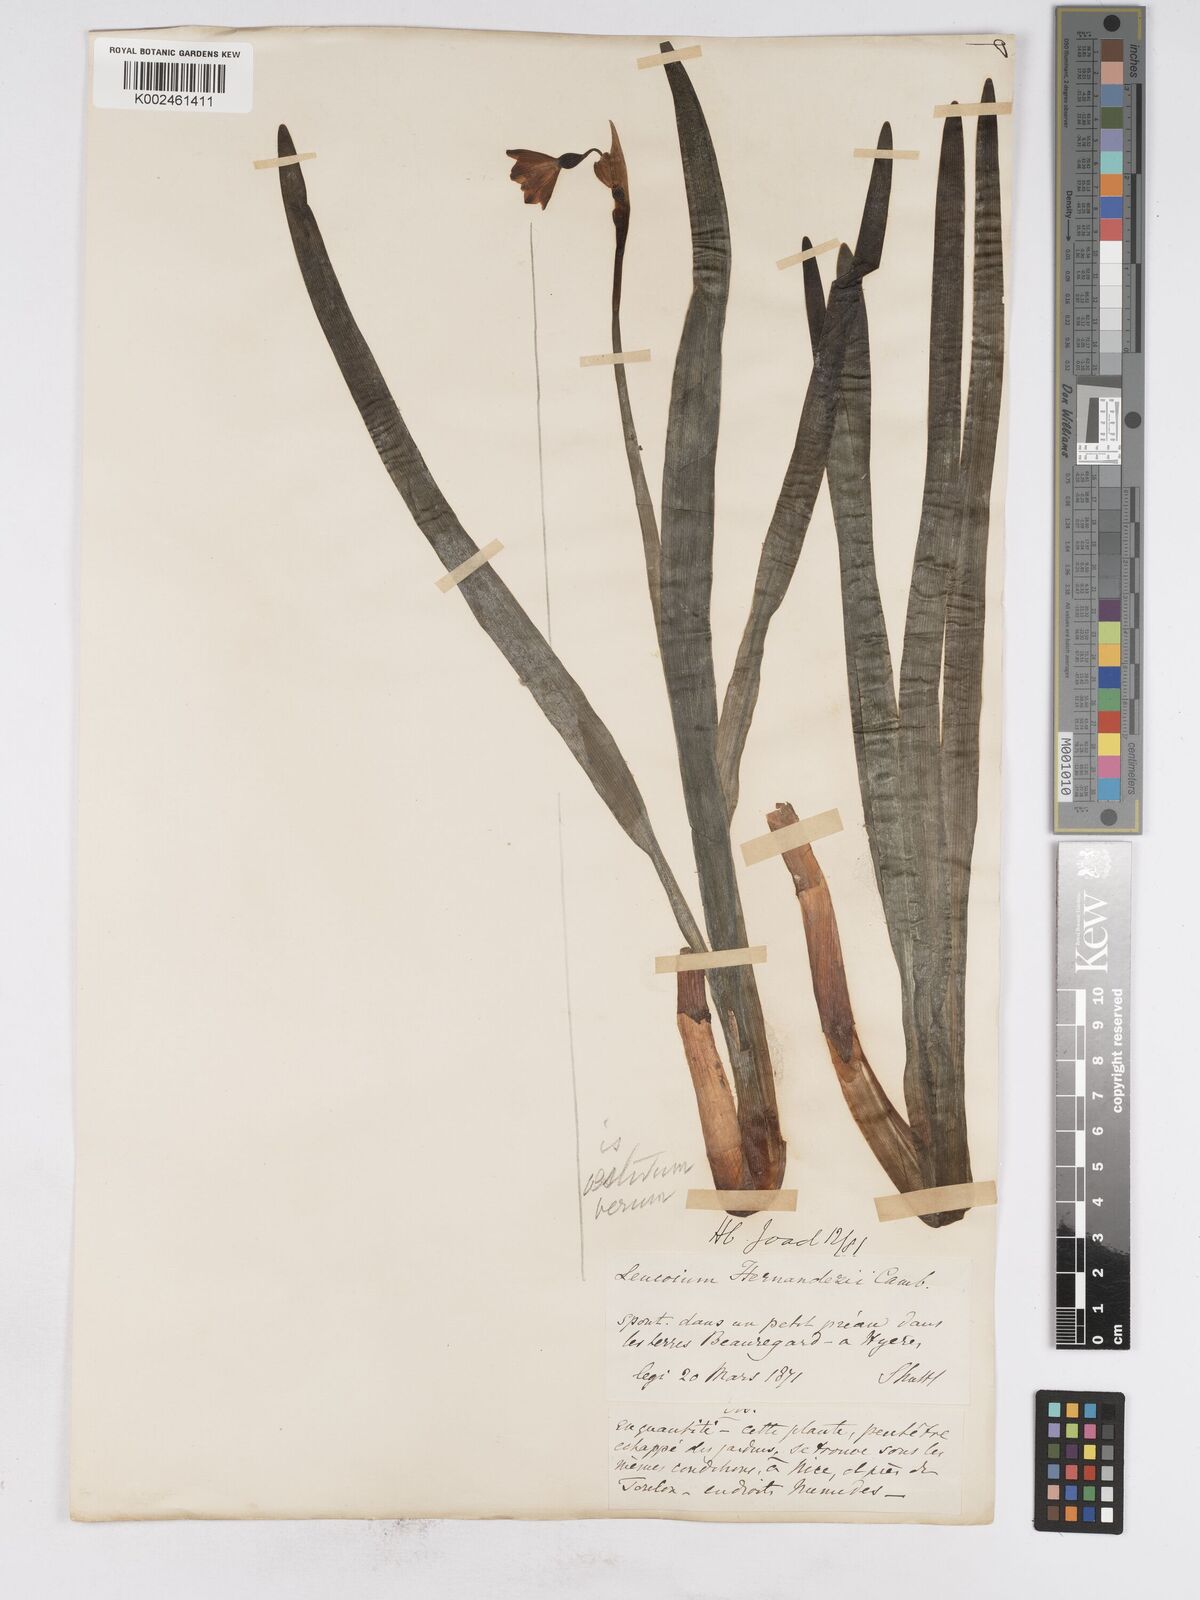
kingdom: Plantae
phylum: Tracheophyta
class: Liliopsida
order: Asparagales
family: Amaryllidaceae
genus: Leucojum
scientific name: Leucojum aestivum
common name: Summer snowflake
